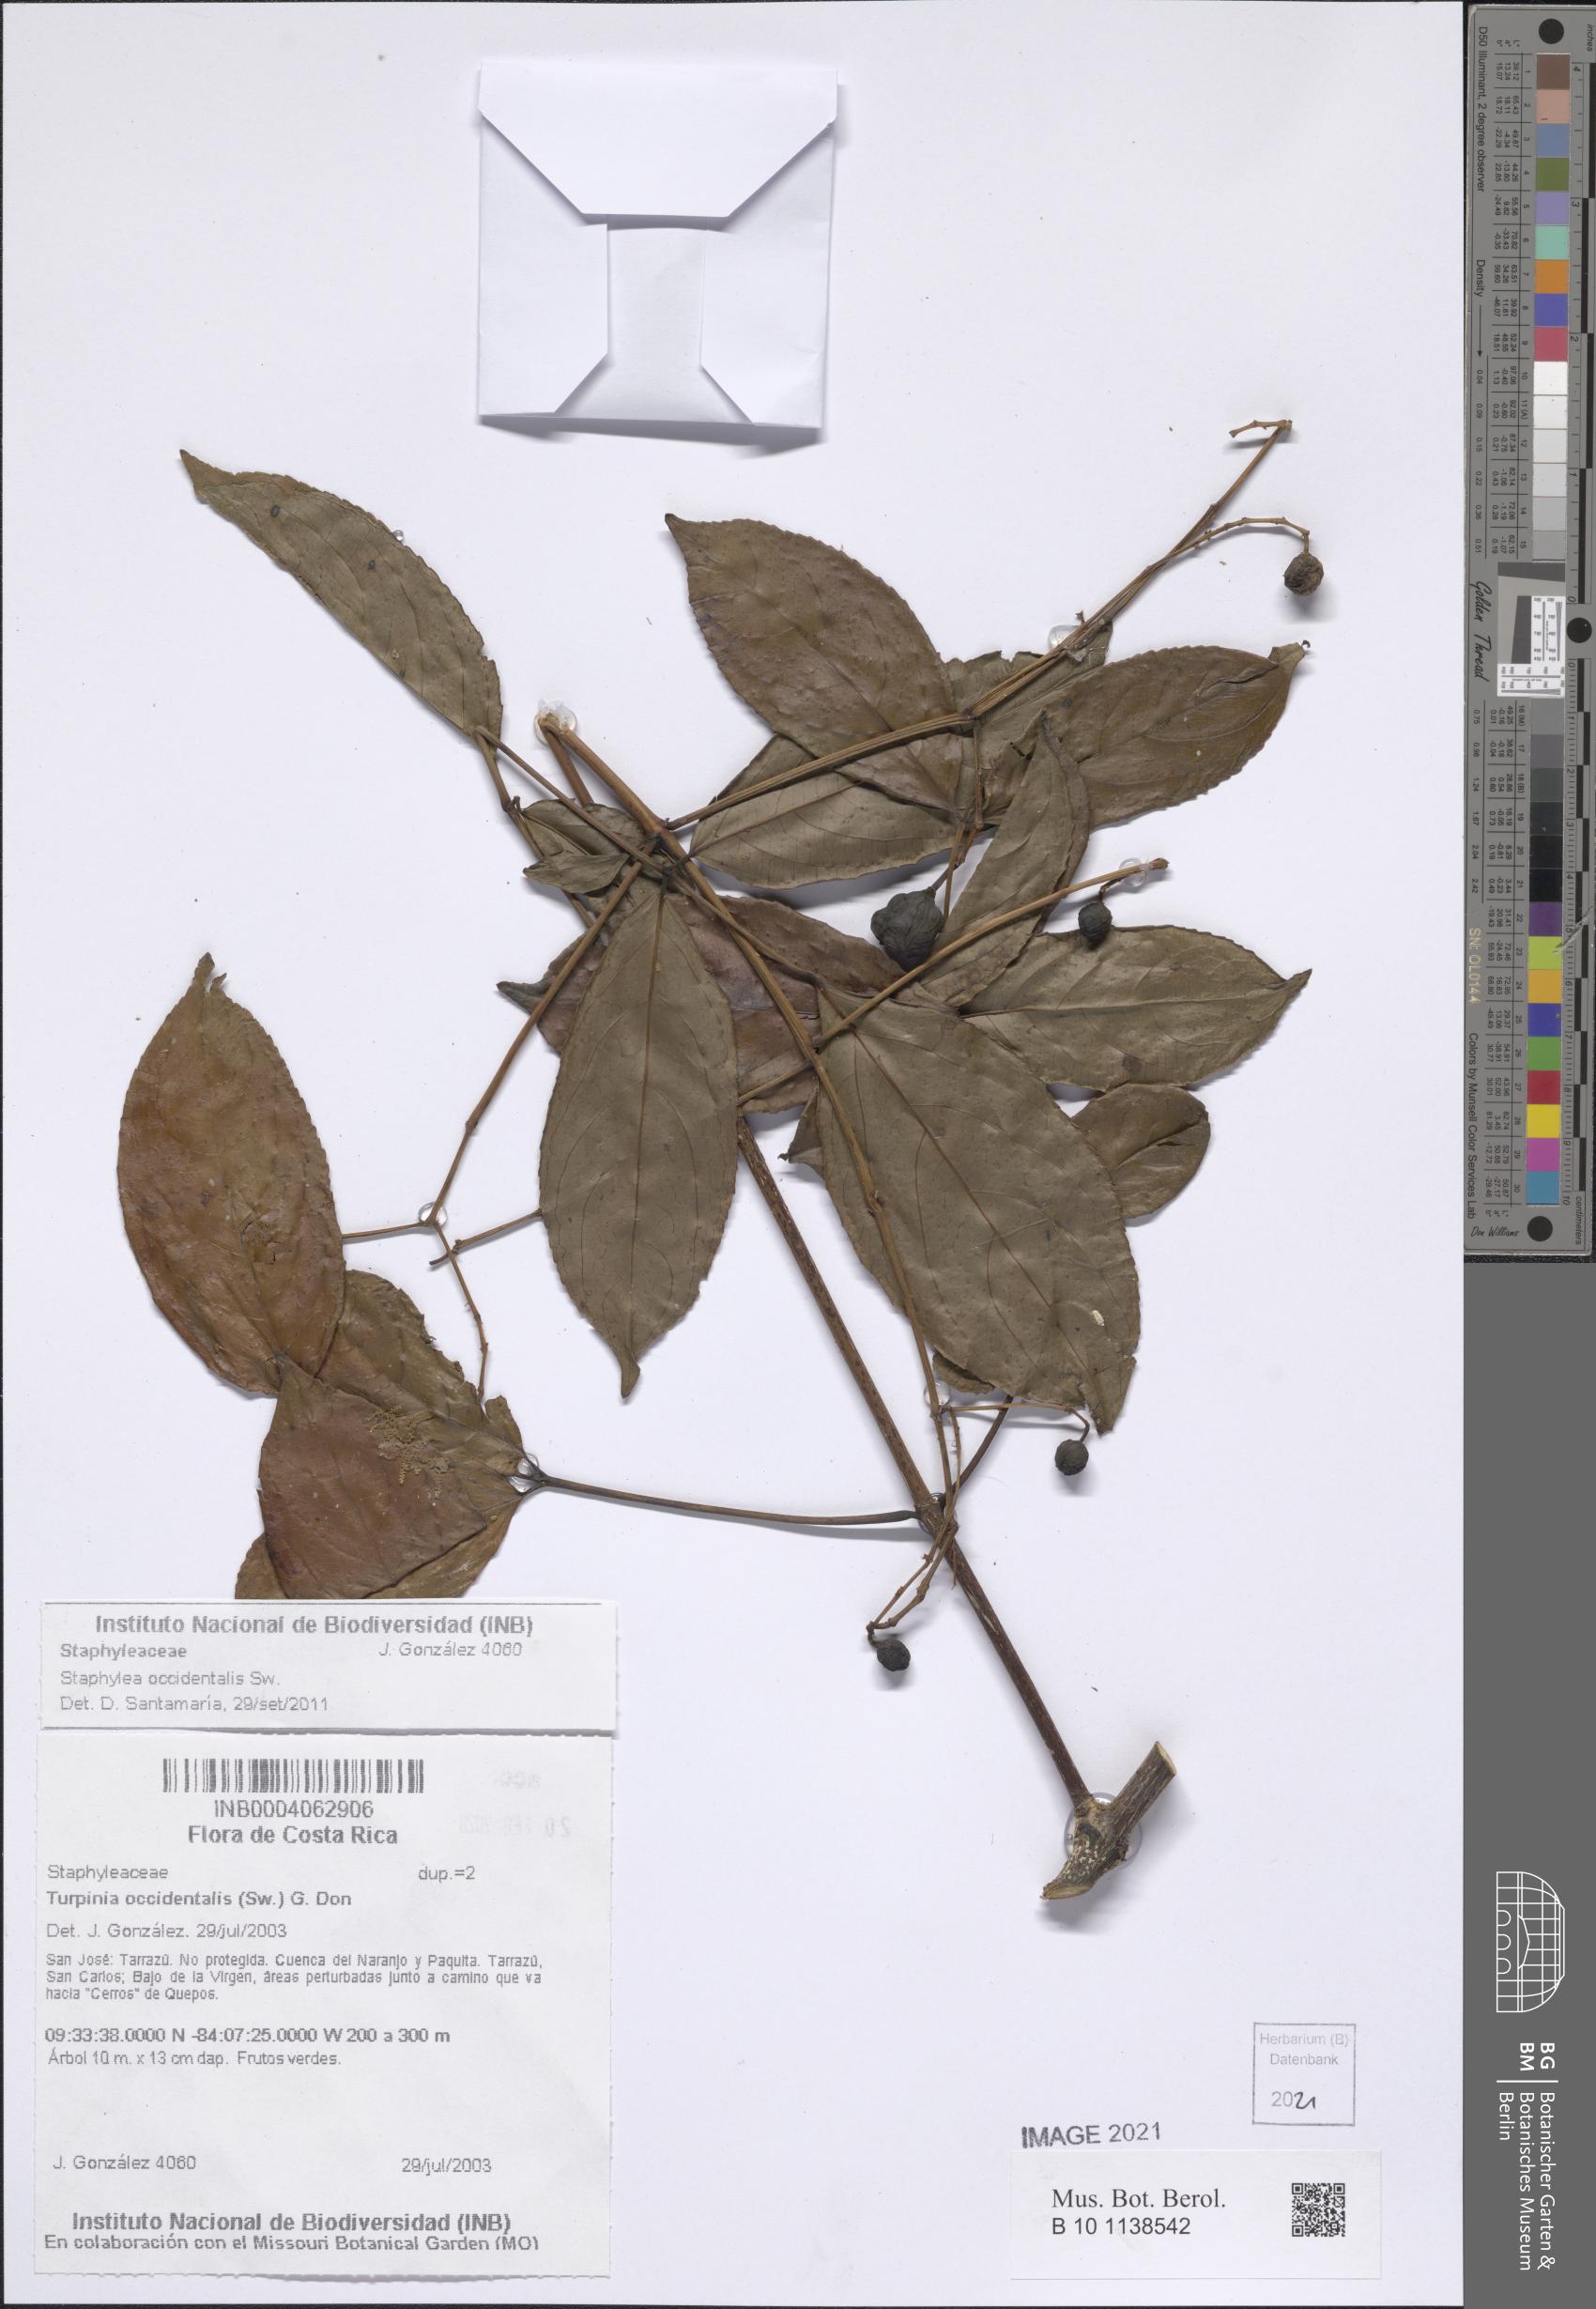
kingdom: Plantae
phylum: Tracheophyta
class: Magnoliopsida
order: Crossosomatales
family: Staphyleaceae
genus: Turpinia
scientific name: Turpinia occidentalis
